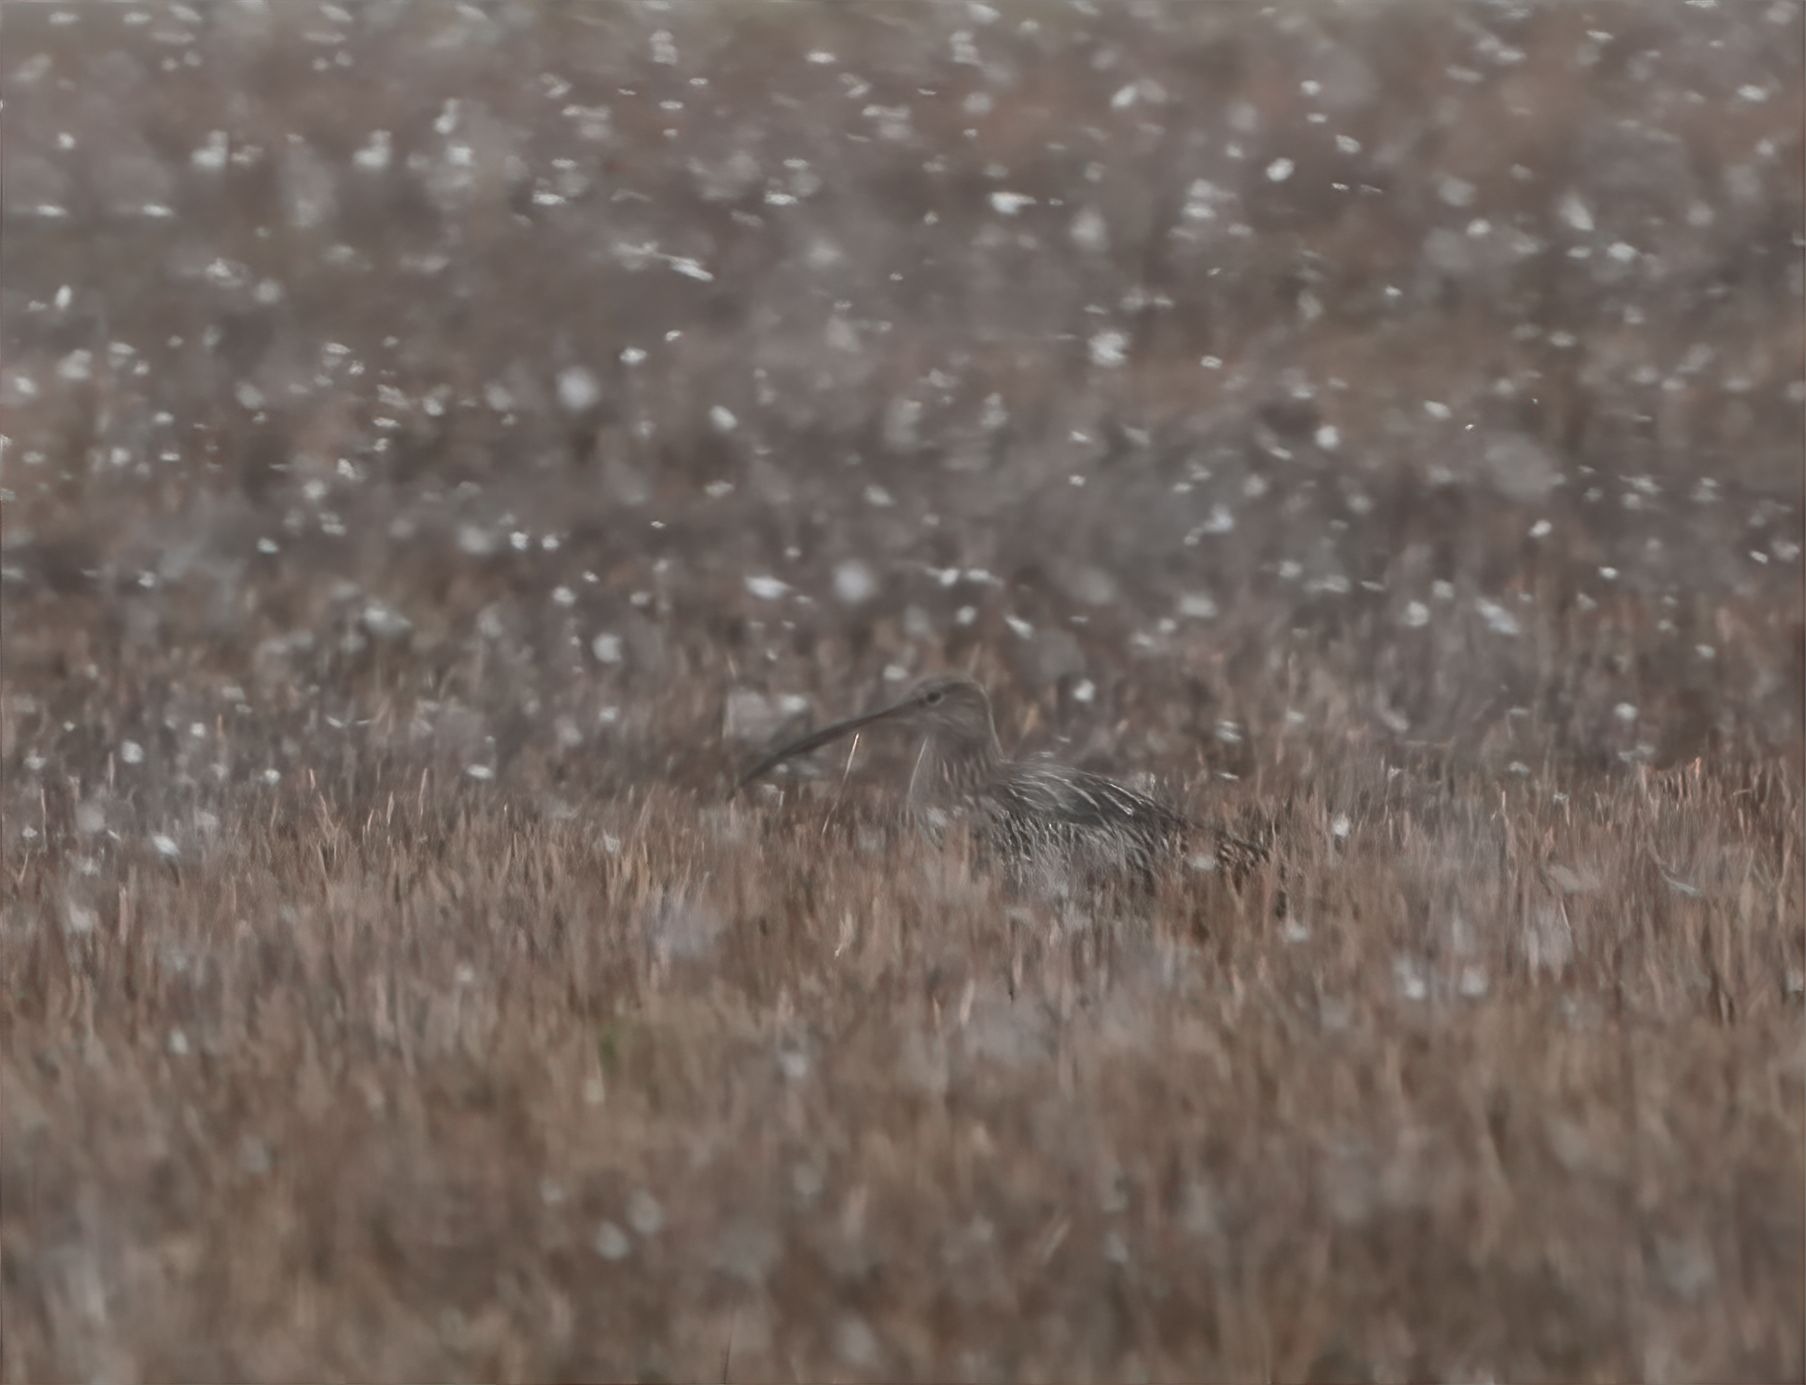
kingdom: Animalia
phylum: Chordata
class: Aves
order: Charadriiformes
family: Scolopacidae
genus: Numenius
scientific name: Numenius arquata
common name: Storspove
